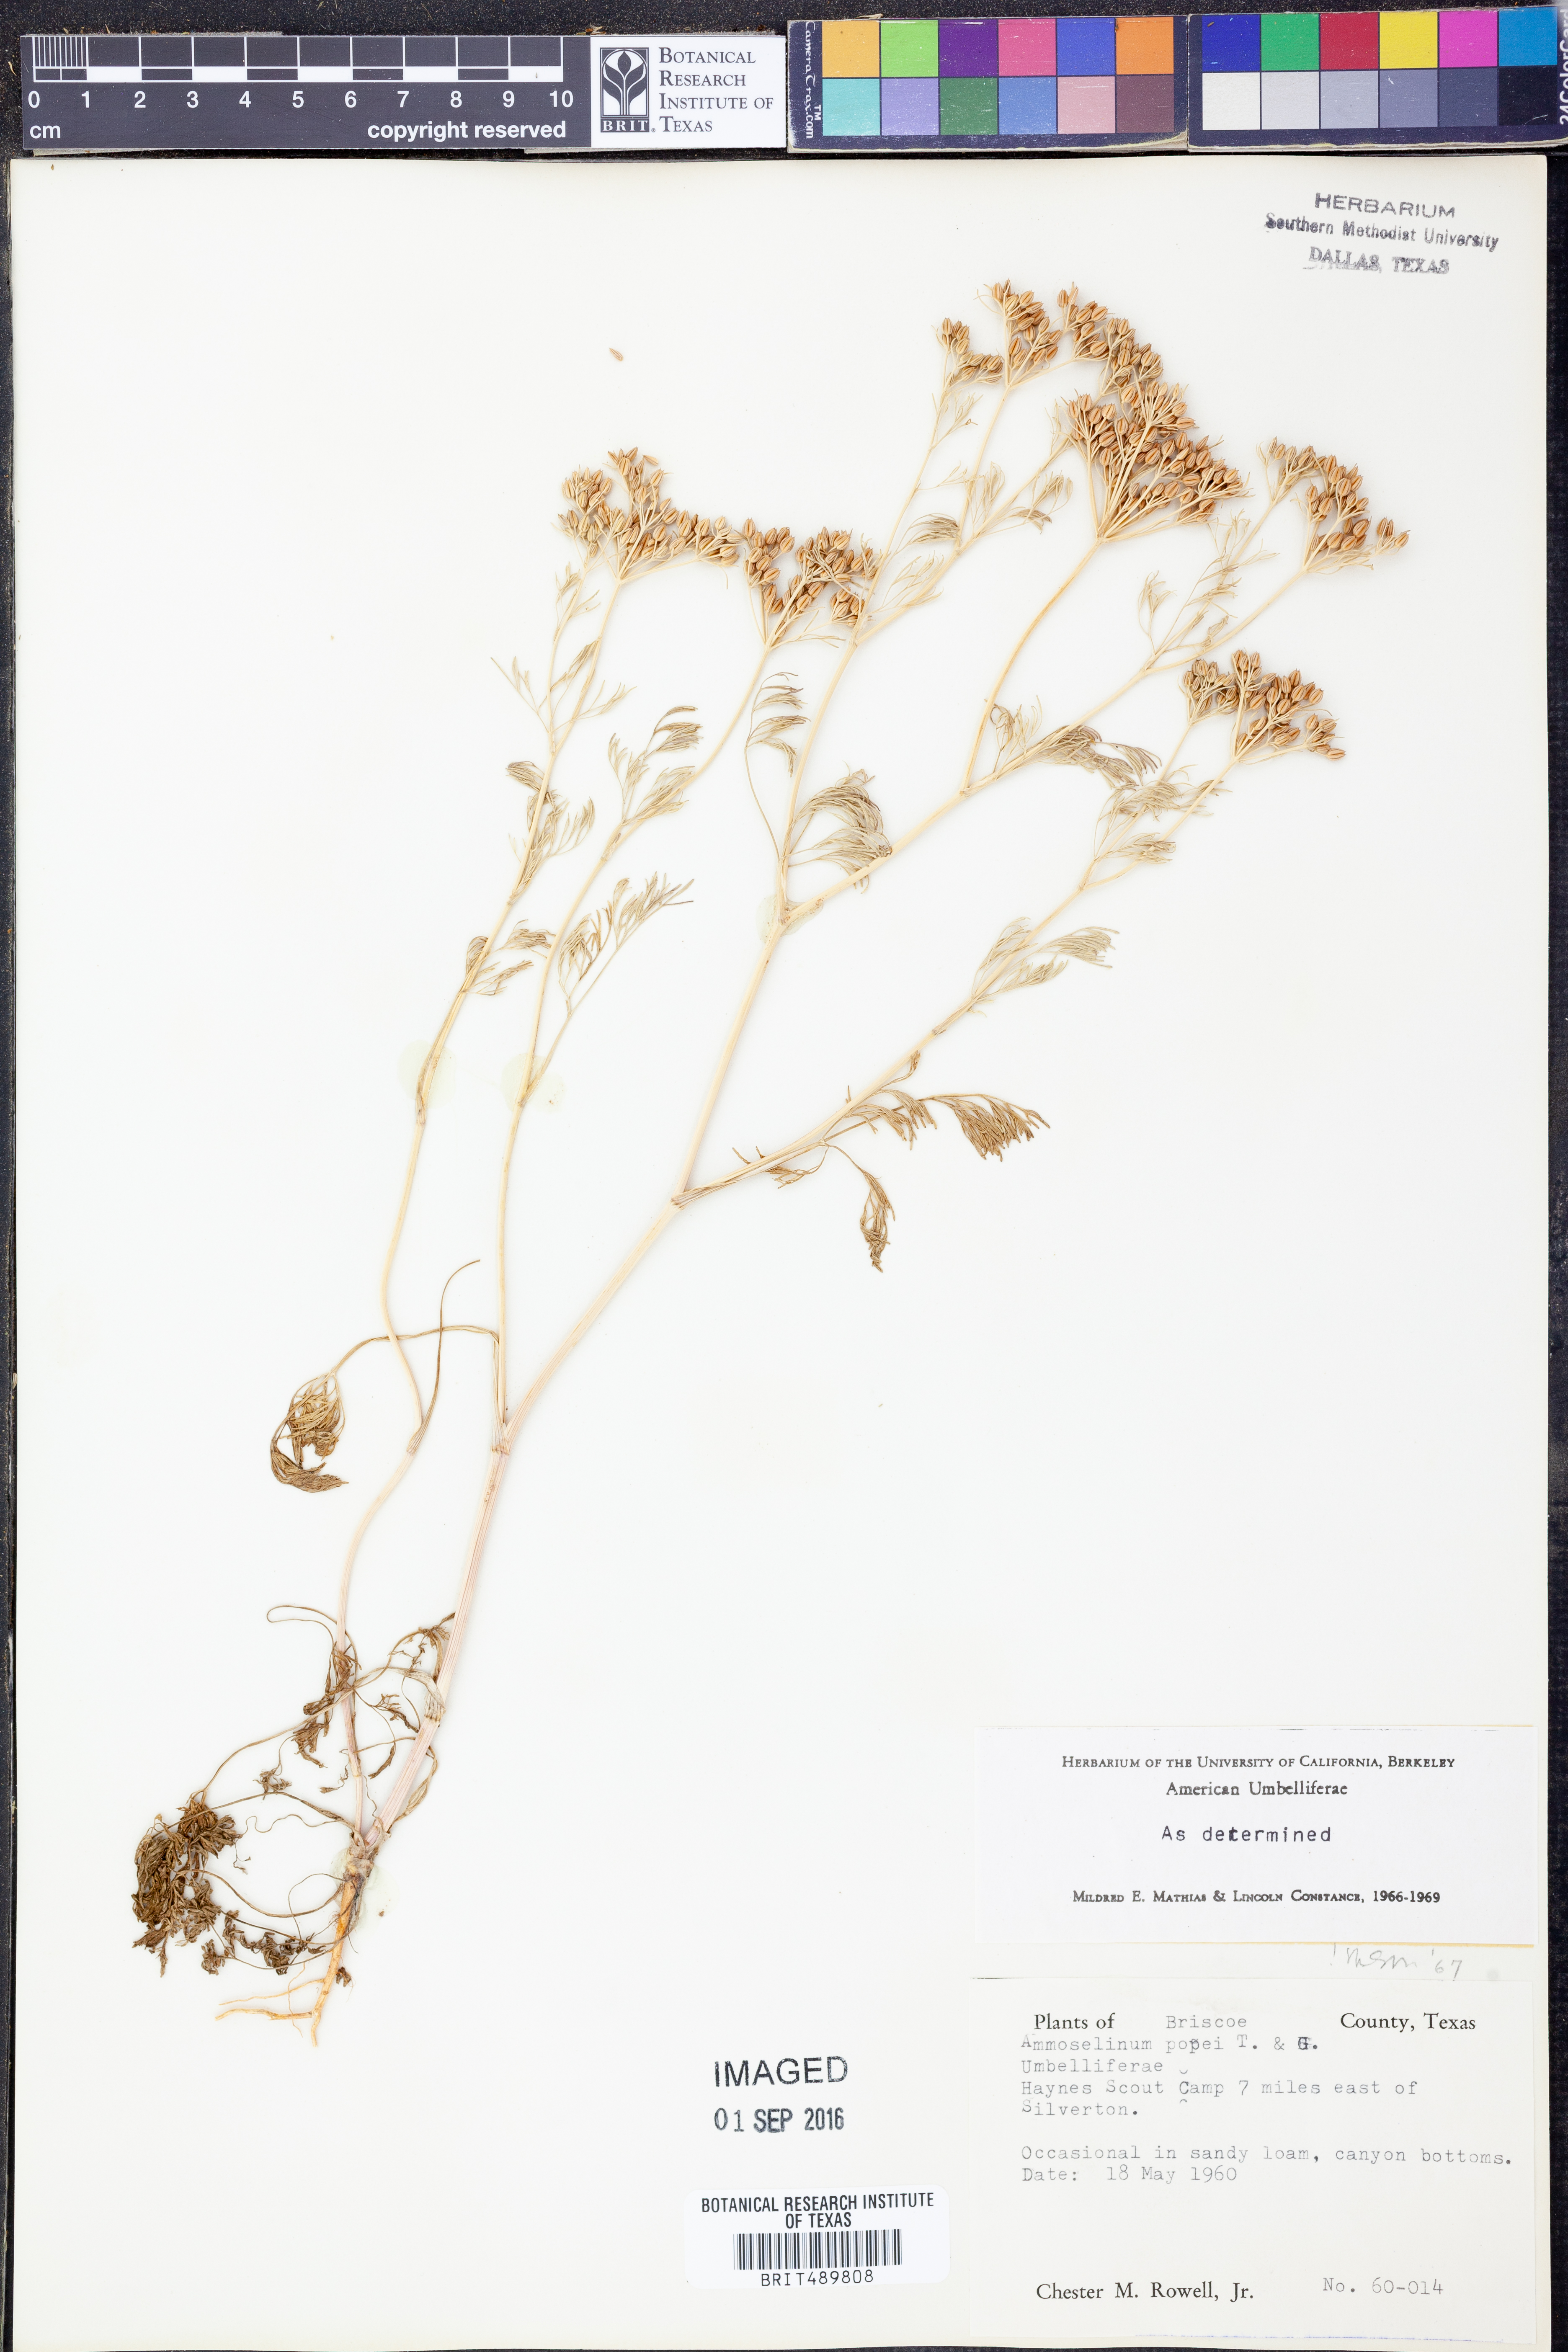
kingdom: Plantae
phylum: Tracheophyta
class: Magnoliopsida
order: Apiales
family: Apiaceae
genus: Ammoselinum
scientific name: Ammoselinum popei
